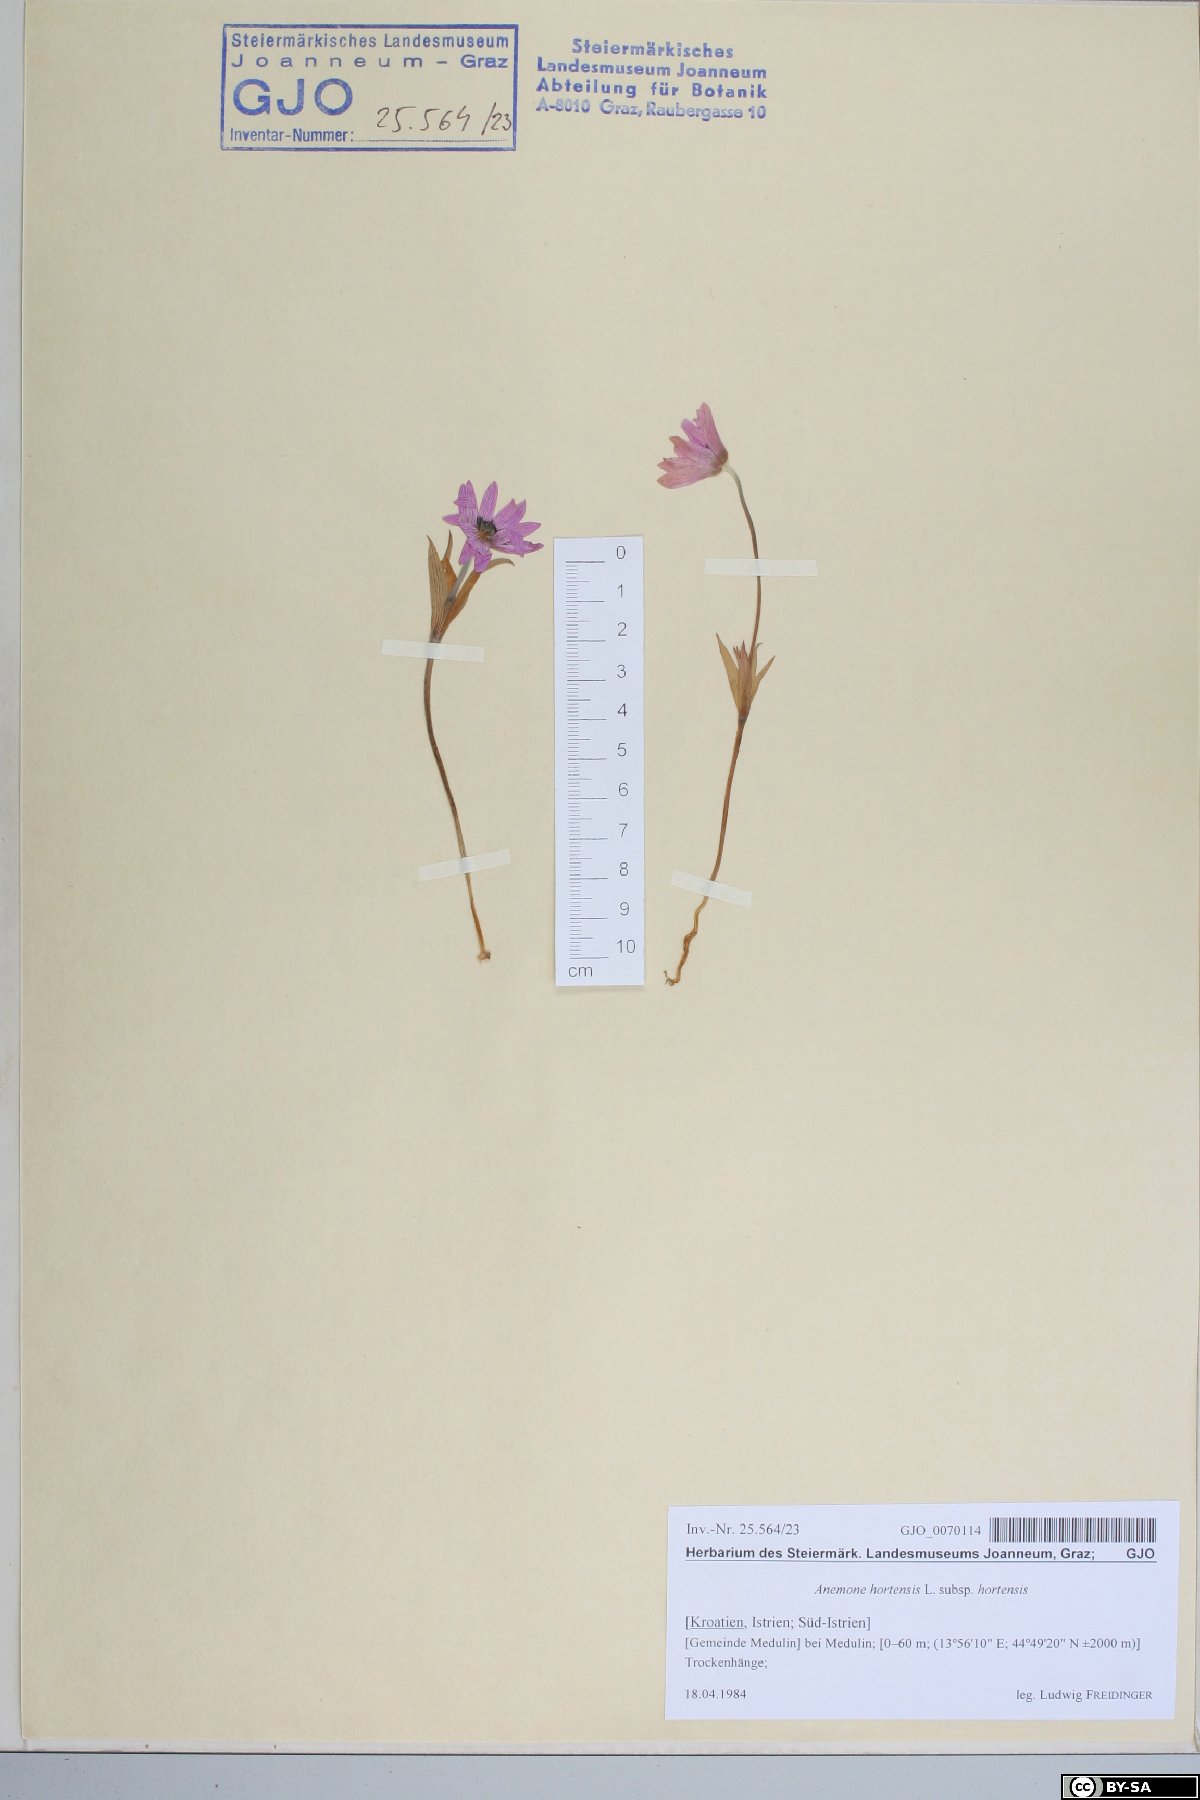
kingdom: Plantae
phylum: Tracheophyta
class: Magnoliopsida
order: Ranunculales
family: Ranunculaceae
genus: Anemone
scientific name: Anemone hortensis
